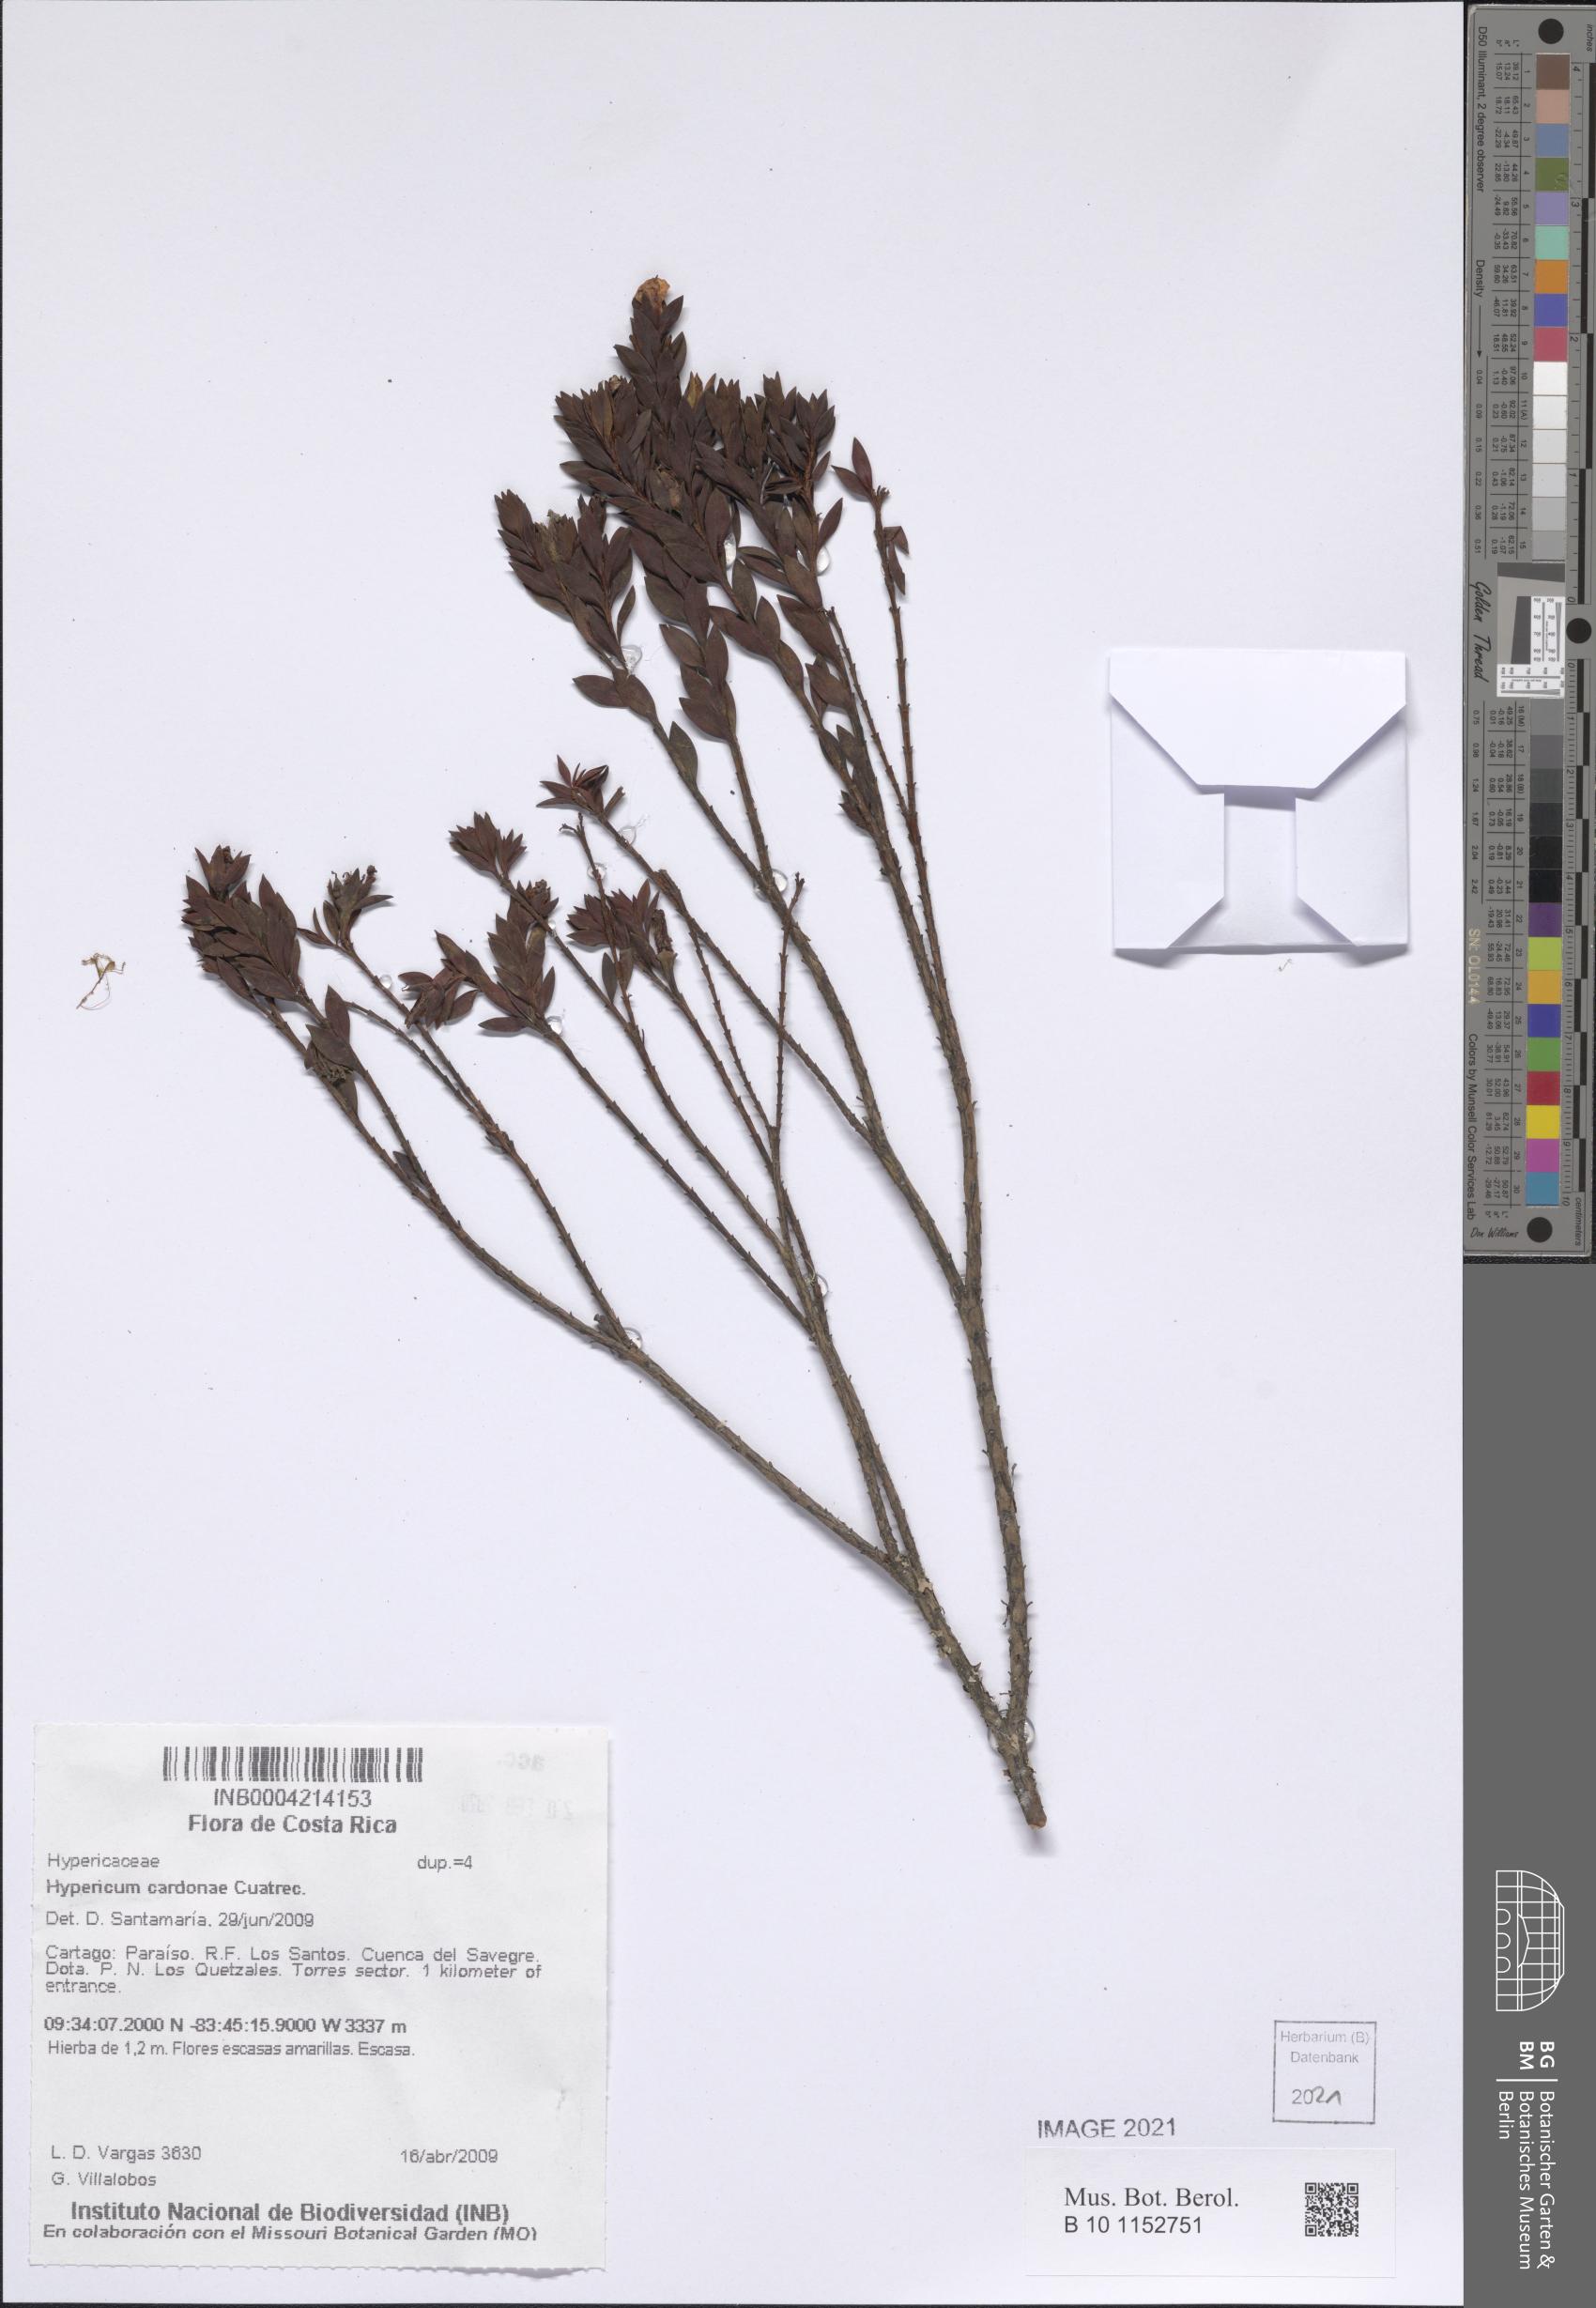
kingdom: Plantae
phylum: Tracheophyta
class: Magnoliopsida
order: Malpighiales
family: Hypericaceae
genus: Hypericum
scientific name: Hypericum cardonae
